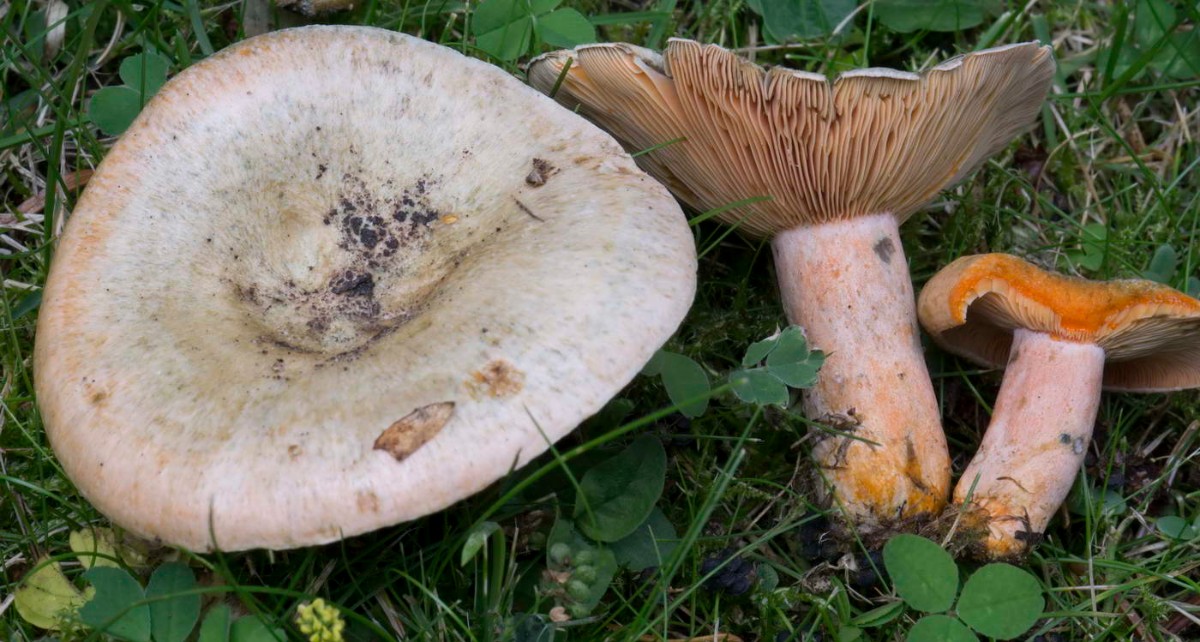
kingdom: Fungi
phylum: Basidiomycota
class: Agaricomycetes
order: Russulales
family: Russulaceae
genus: Lactarius
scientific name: Lactarius deterrimus
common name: gran-mælkehat
